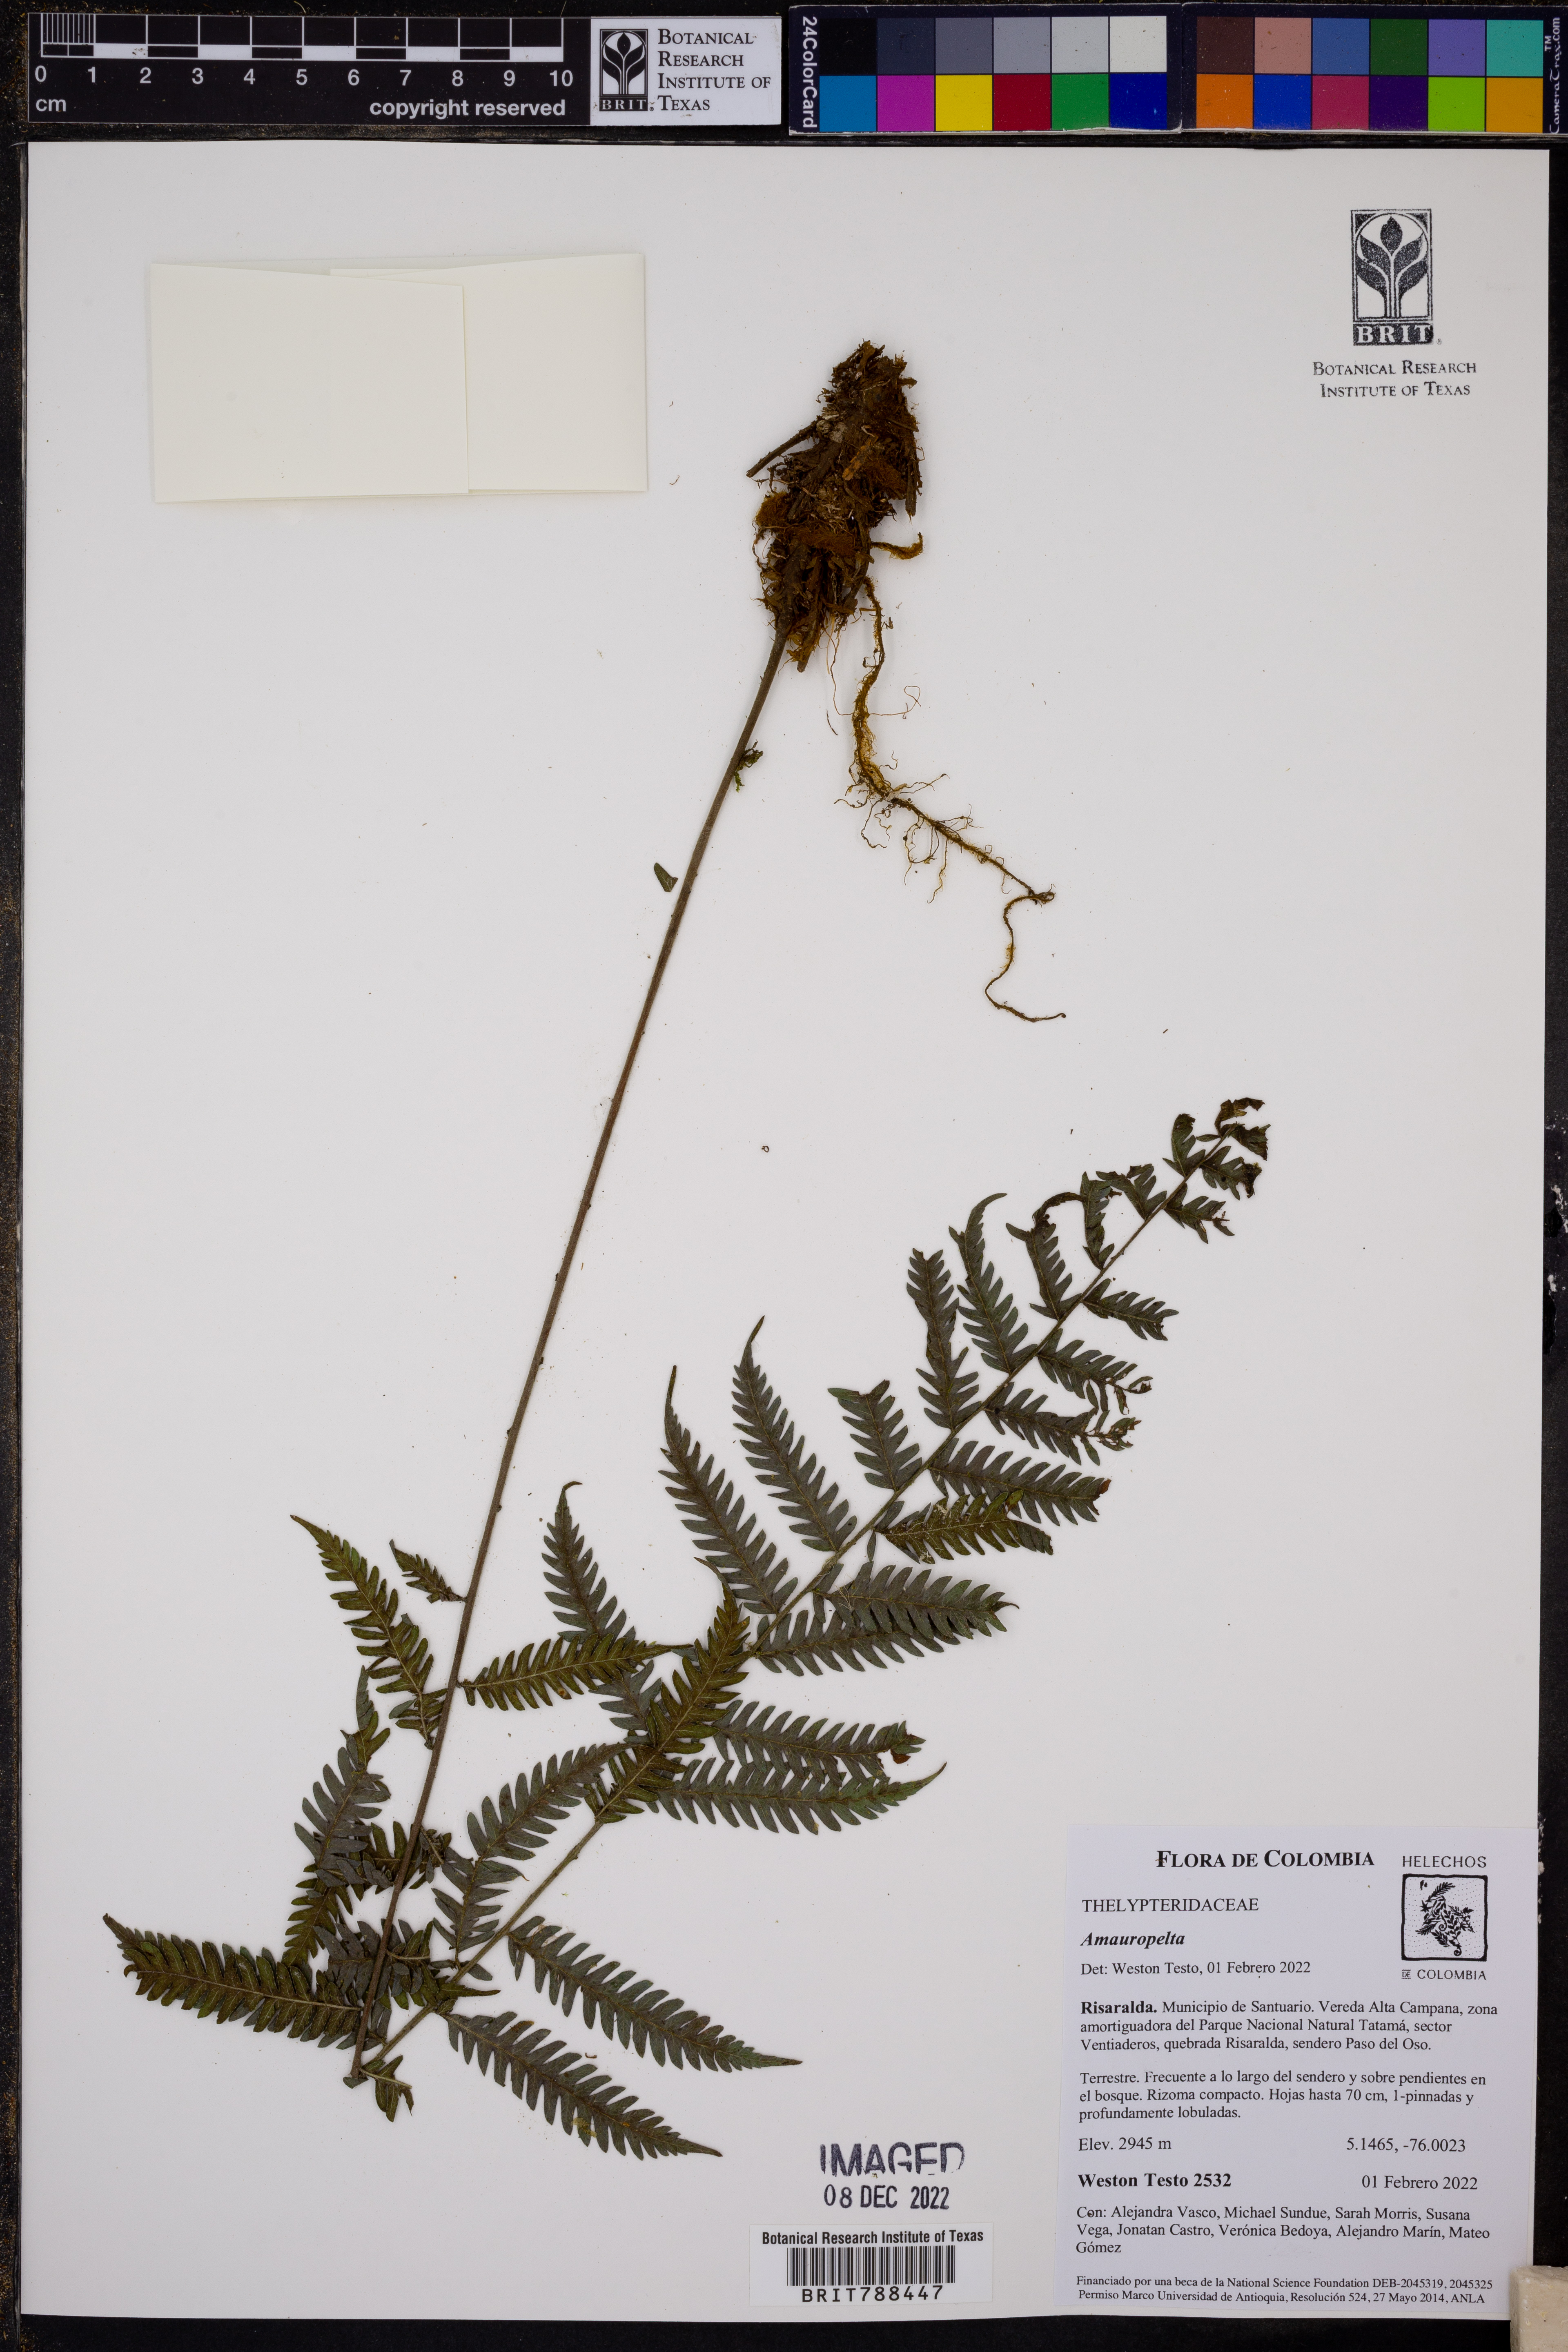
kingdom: Plantae
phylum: Tracheophyta
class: Polypodiopsida
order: Polypodiales
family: Thelypteridaceae
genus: Amauropelta
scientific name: Amauropelta
